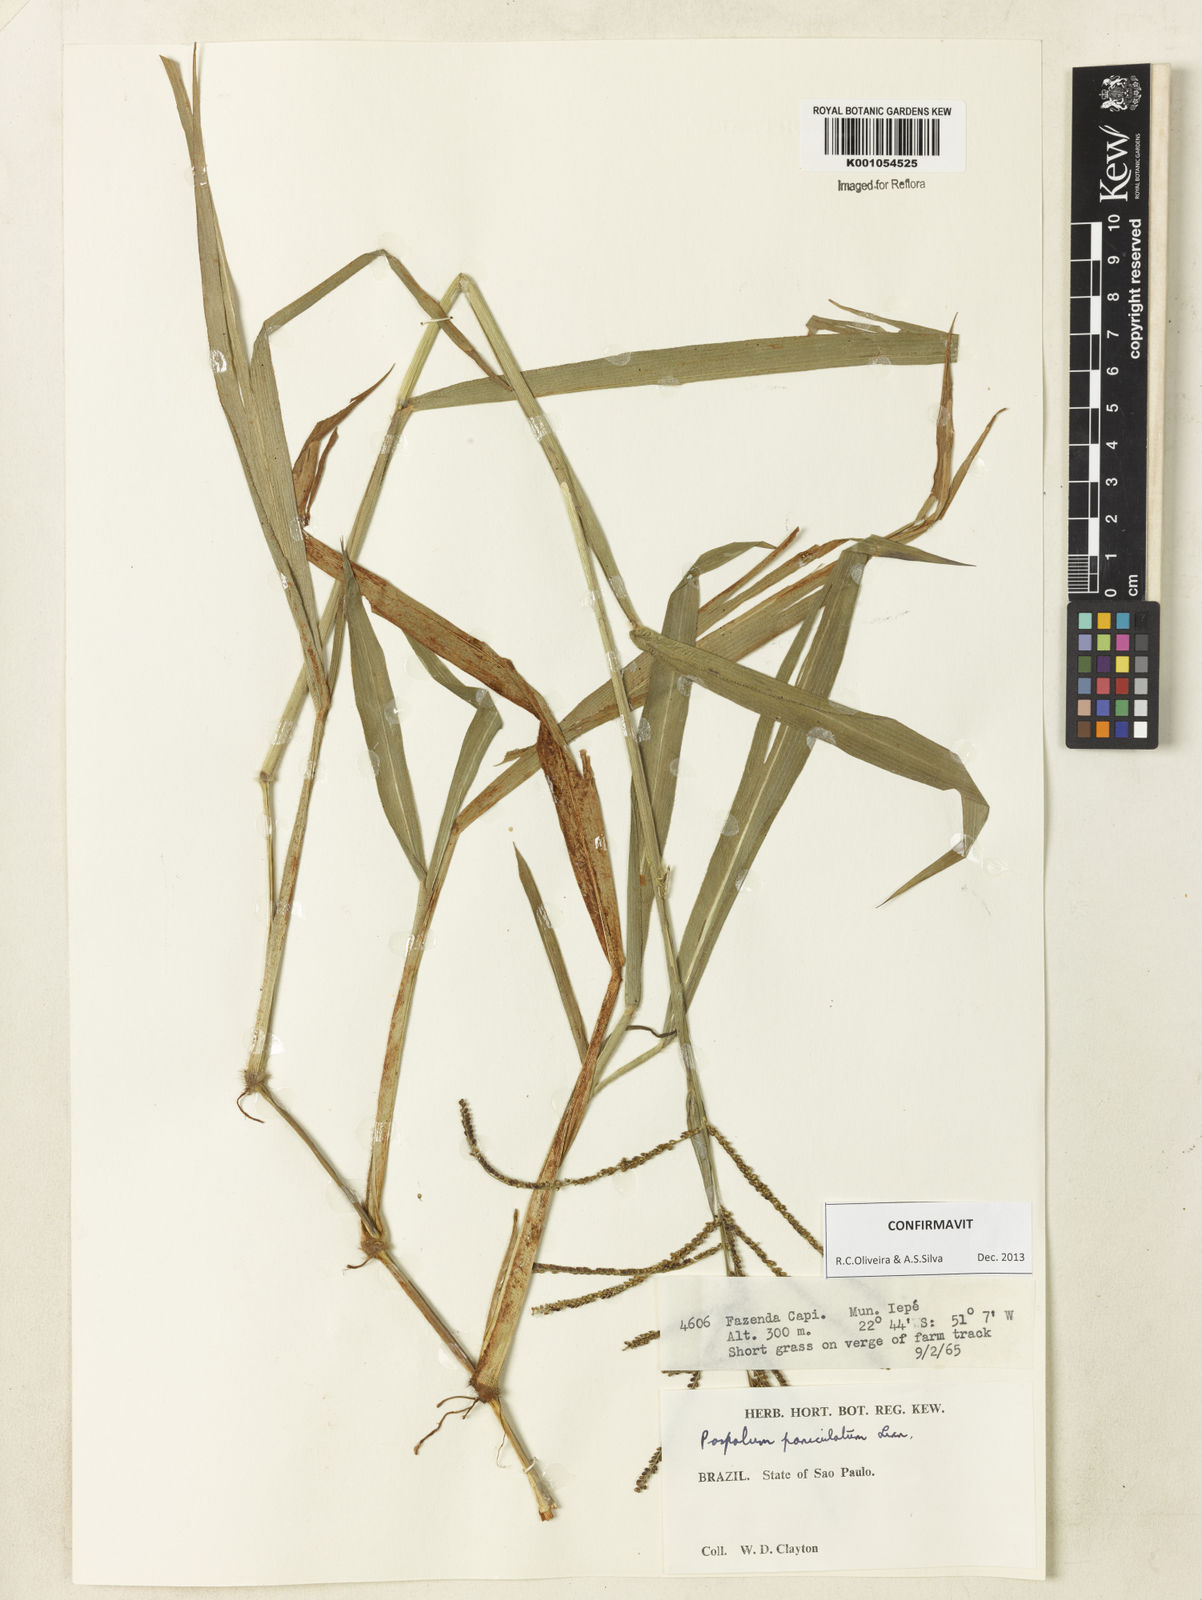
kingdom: Plantae
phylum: Tracheophyta
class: Liliopsida
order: Poales
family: Poaceae
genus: Paspalum
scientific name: Paspalum paniculatum
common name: Arrocillo
